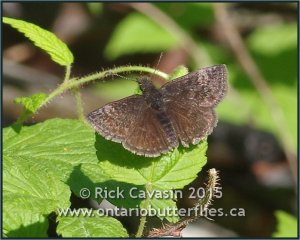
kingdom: Animalia
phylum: Arthropoda
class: Insecta
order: Lepidoptera
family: Hesperiidae
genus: Erynnis
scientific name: Erynnis icelus
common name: Dreamy Duskywing
